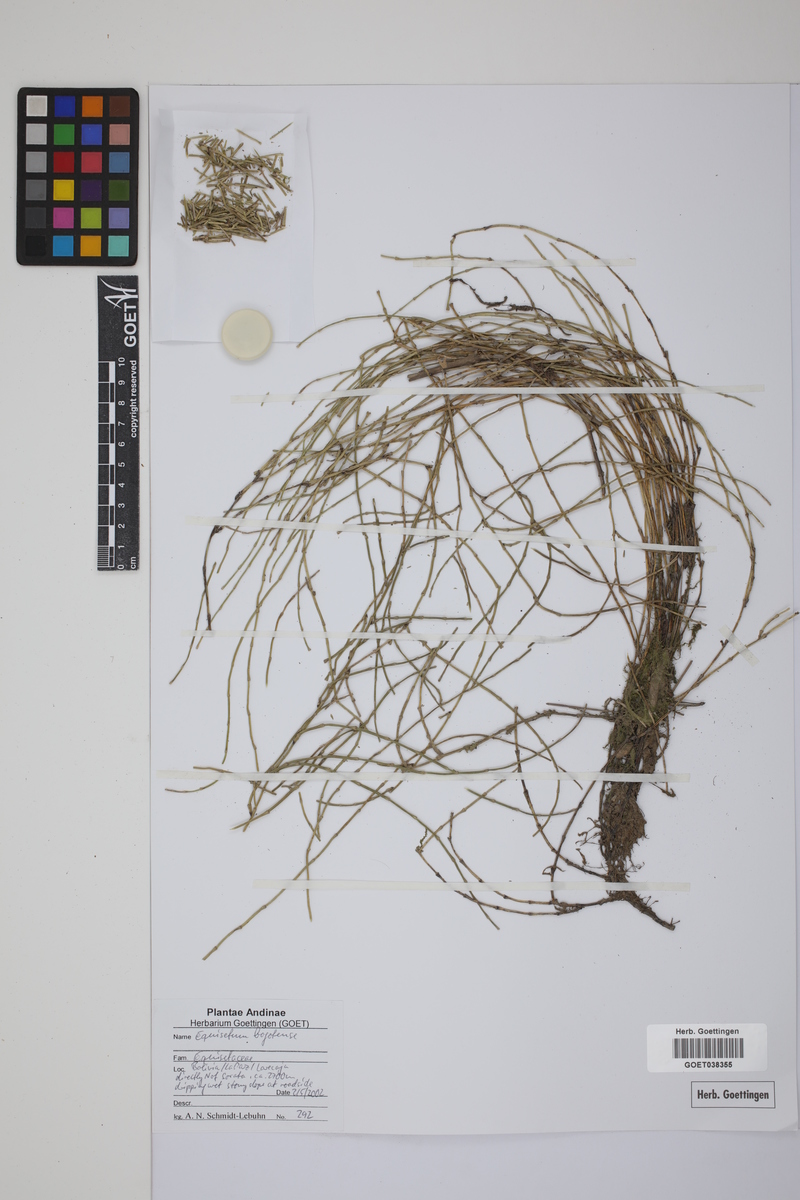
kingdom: Plantae
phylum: Tracheophyta
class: Polypodiopsida
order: Equisetales
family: Equisetaceae
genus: Equisetum
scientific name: Equisetum bogotense
